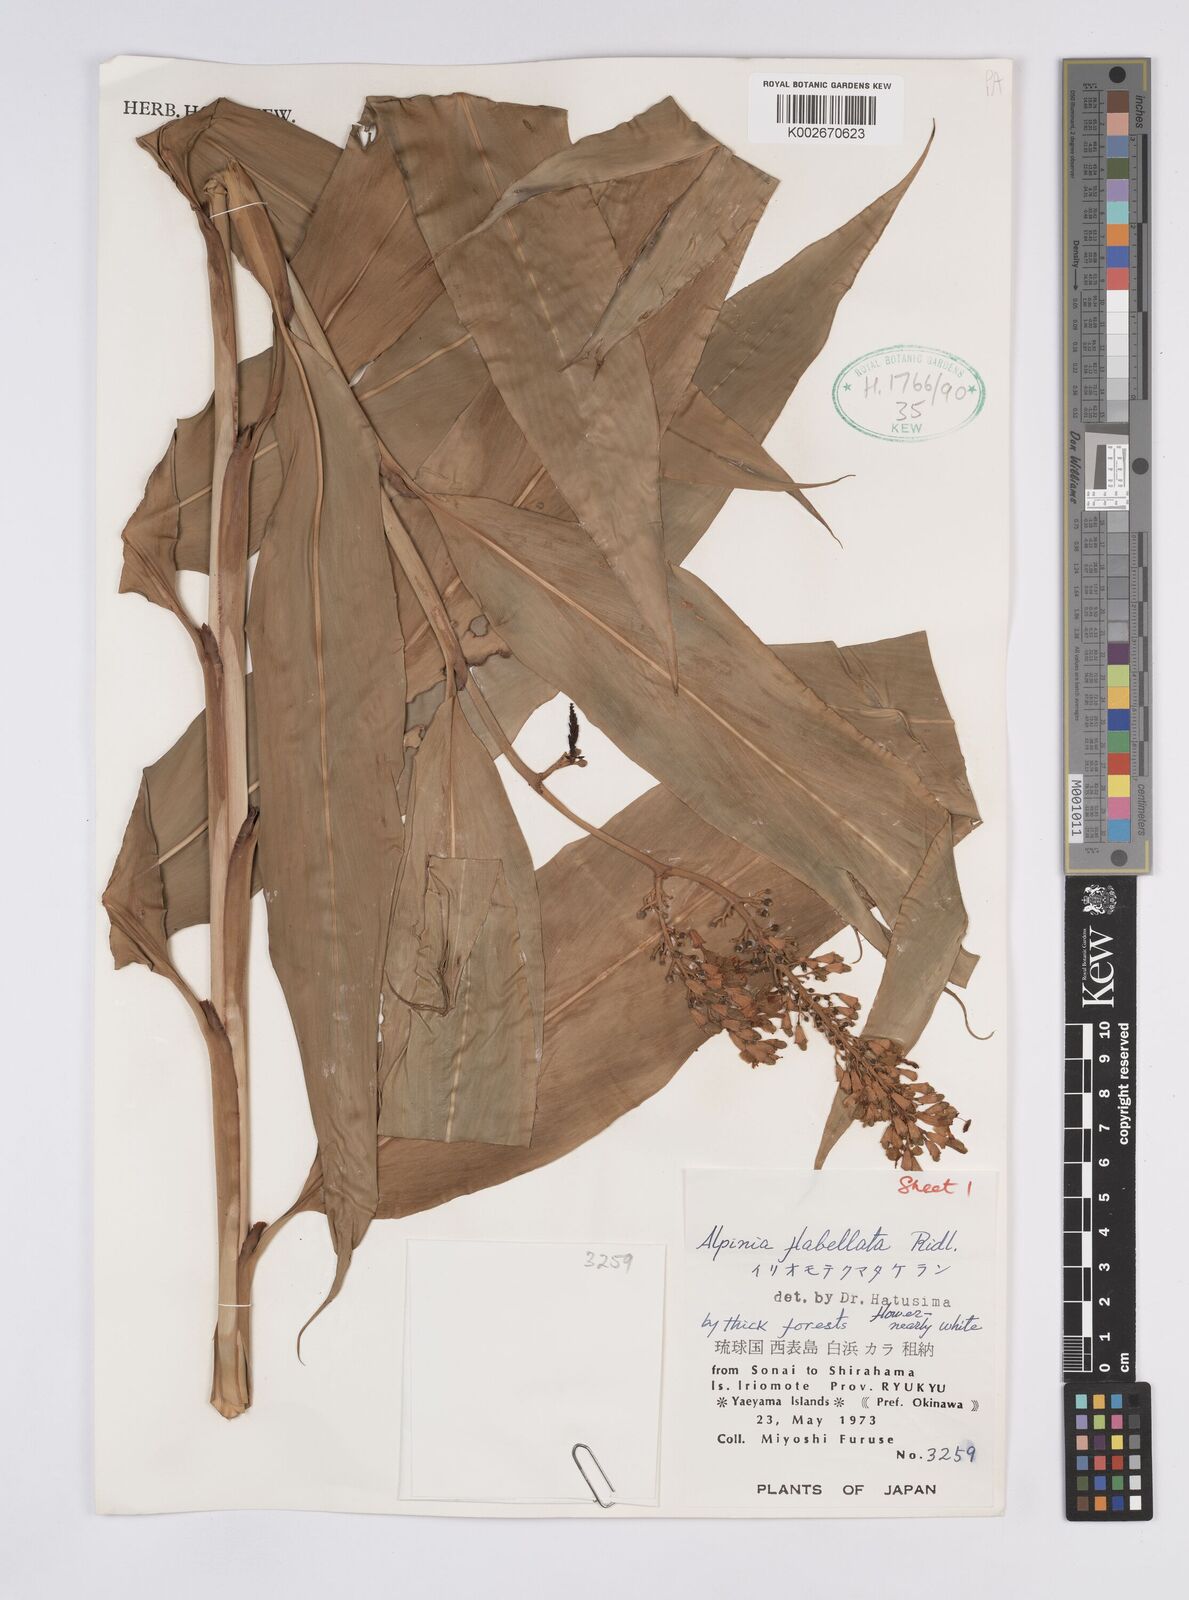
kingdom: Plantae
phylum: Tracheophyta
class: Liliopsida
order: Zingiberales
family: Zingiberaceae
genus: Alpinia
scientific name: Alpinia flabellata
